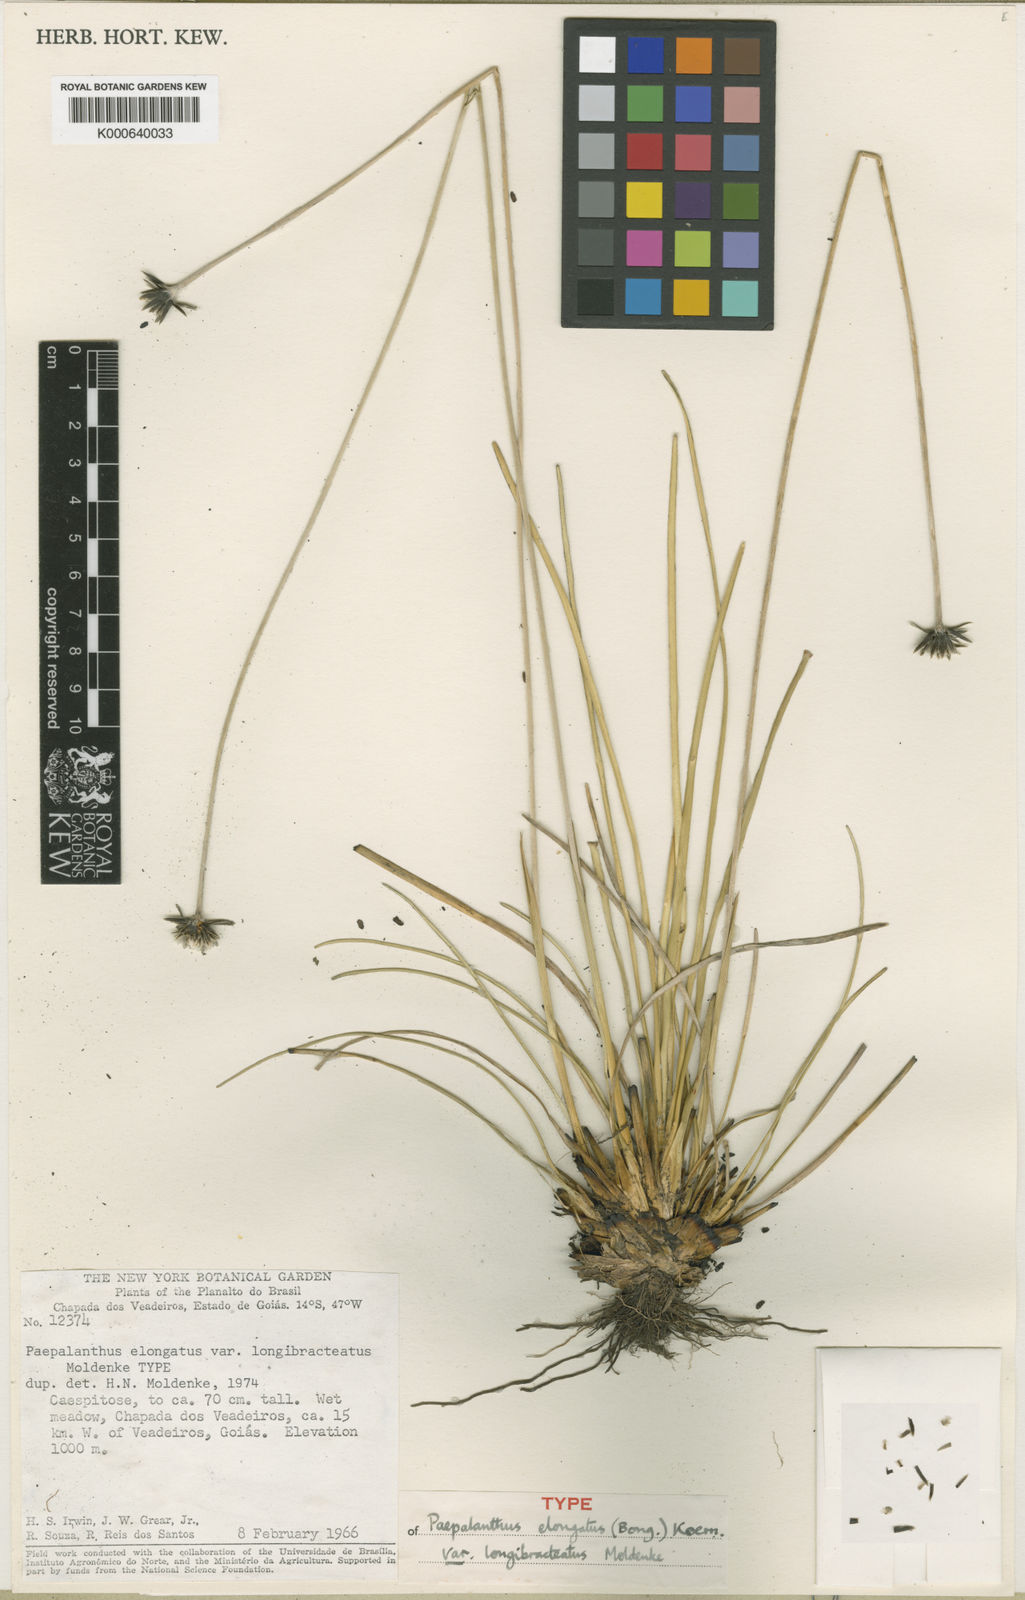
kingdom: Plantae
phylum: Tracheophyta
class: Liliopsida
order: Poales
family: Eriocaulaceae
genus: Paepalanthus
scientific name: Paepalanthus
